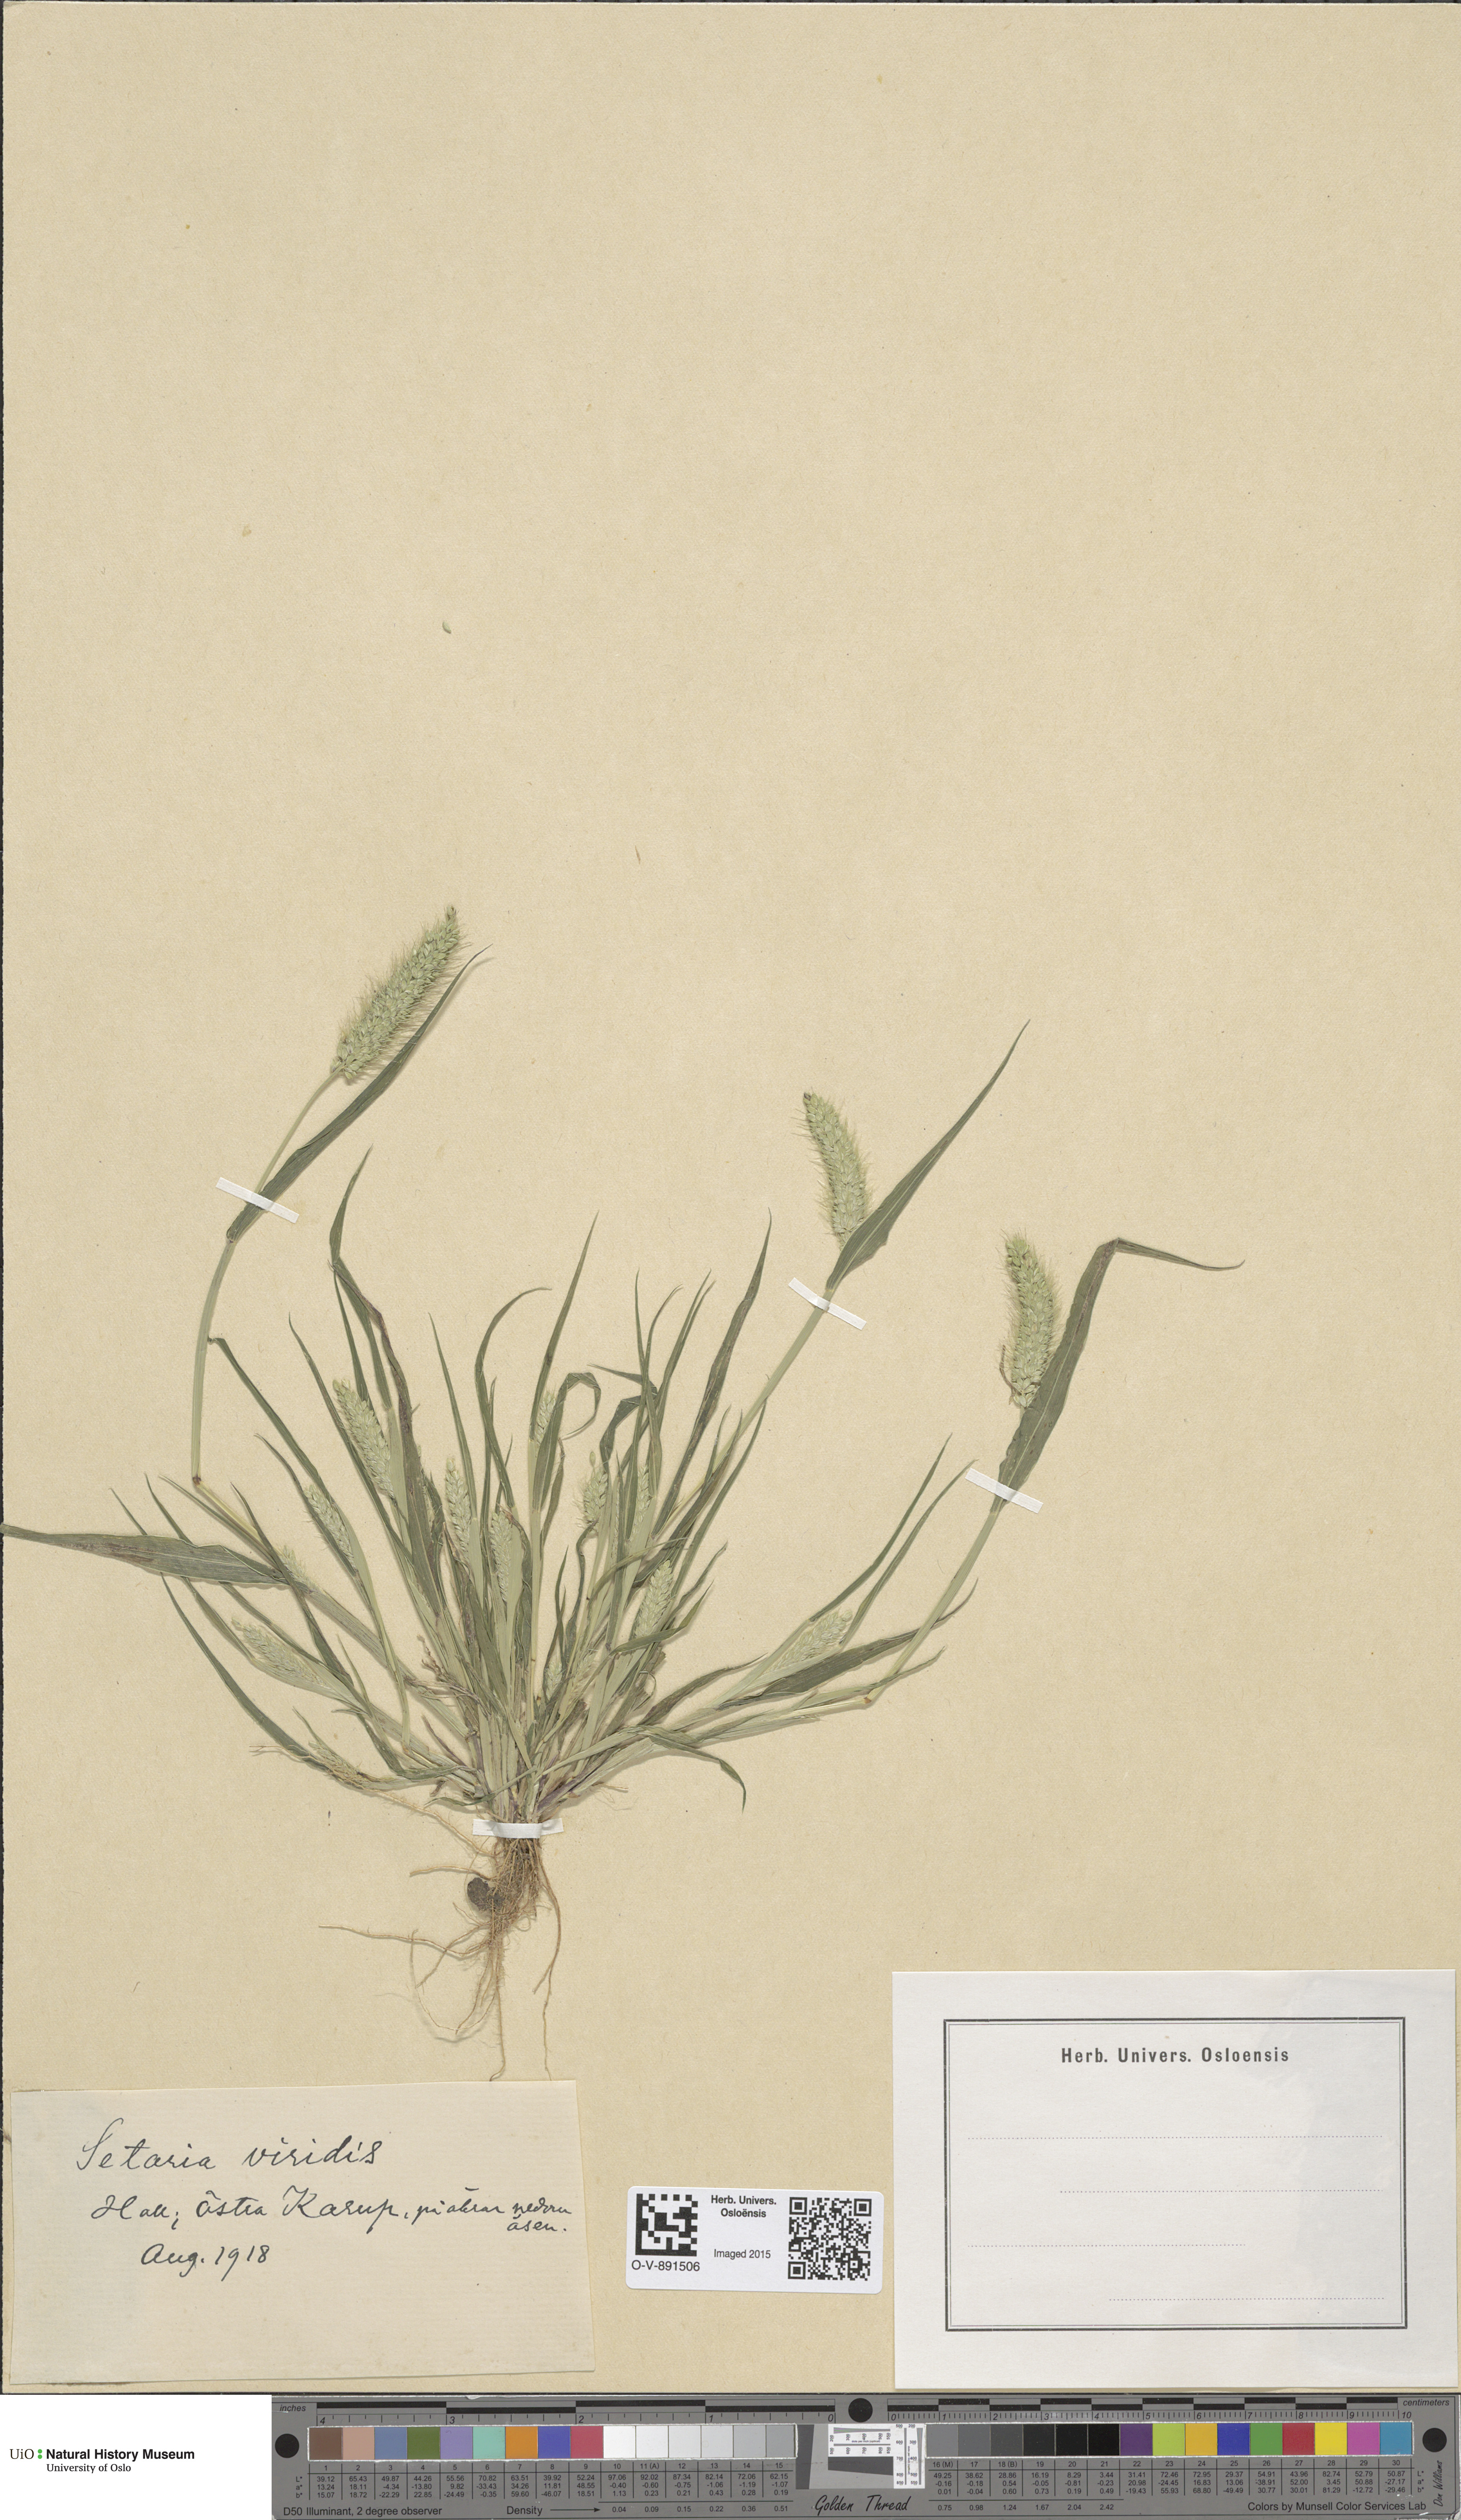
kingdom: Plantae
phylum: Tracheophyta
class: Liliopsida
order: Poales
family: Poaceae
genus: Setaria
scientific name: Setaria viridis
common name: Green bristlegrass
